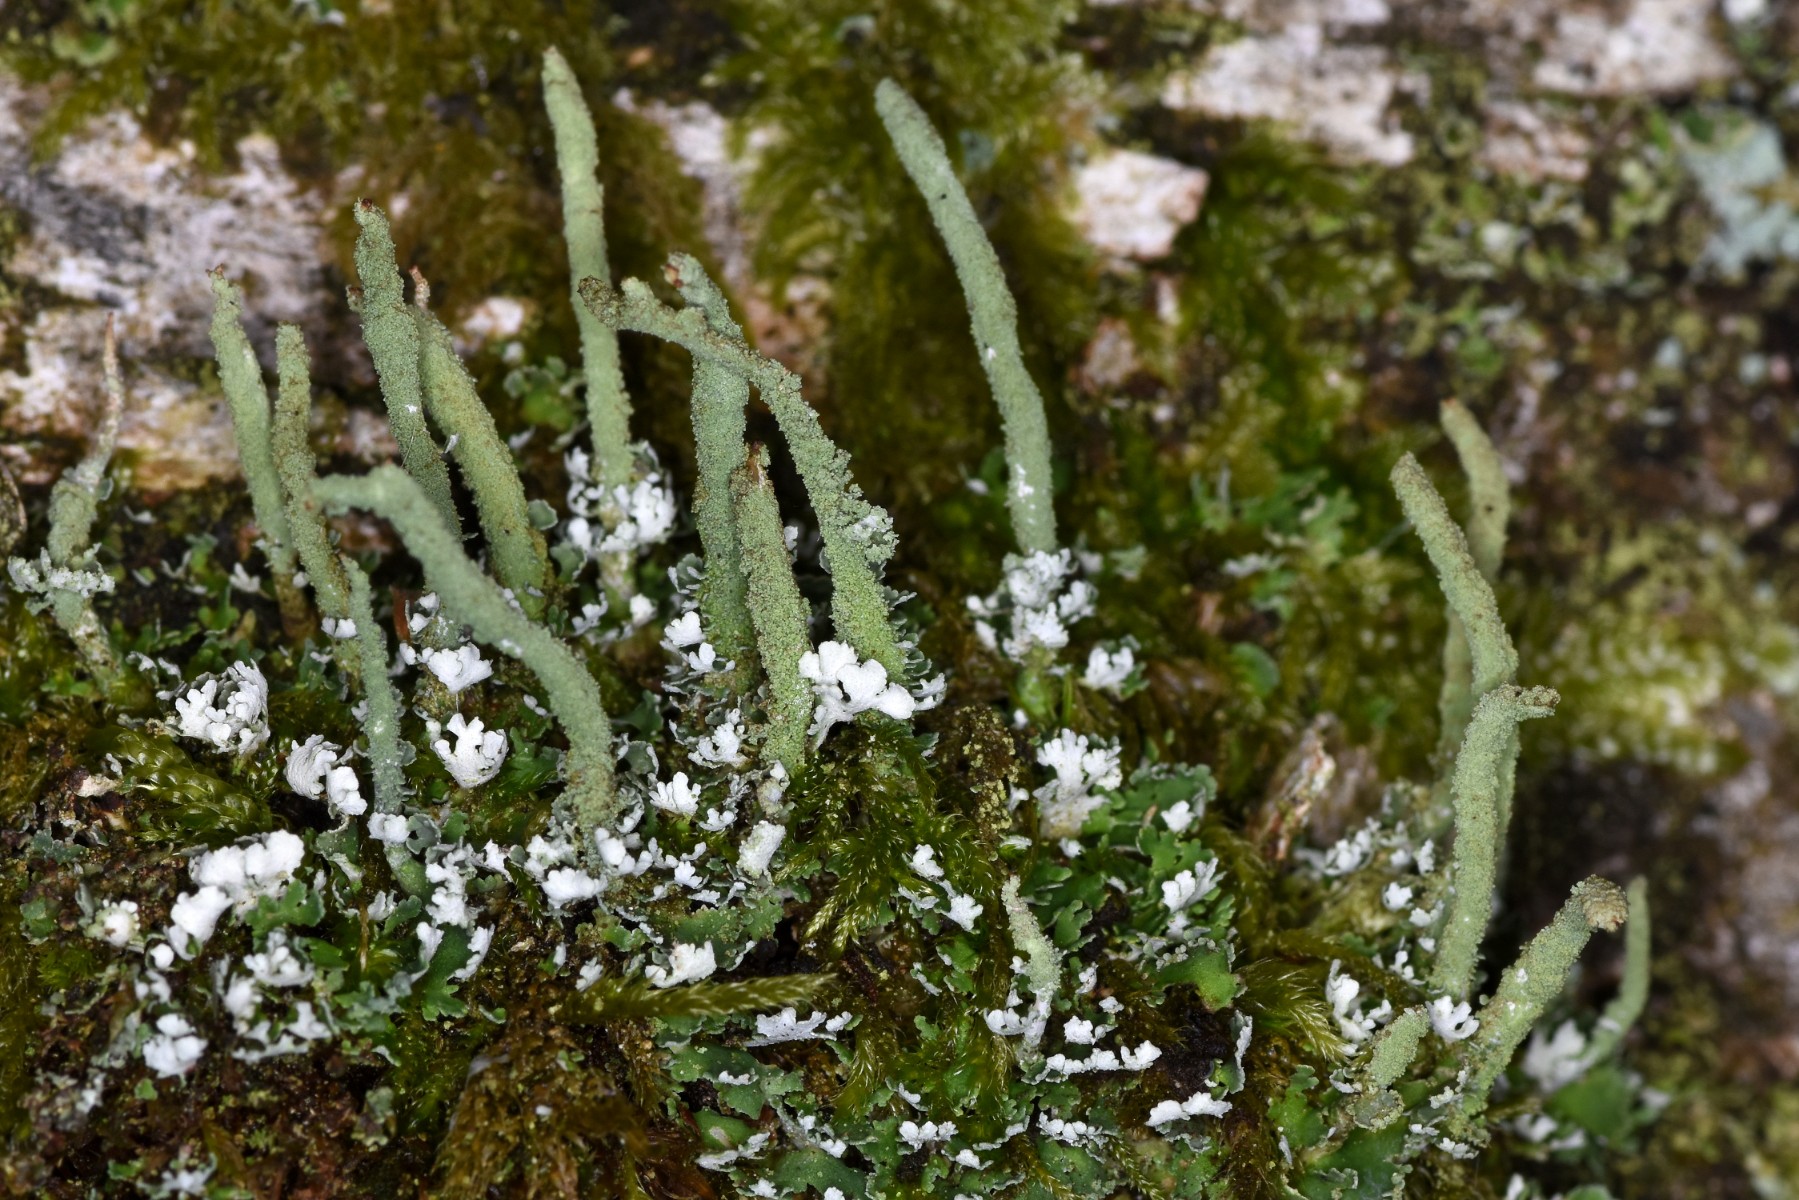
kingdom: Fungi
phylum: Ascomycota
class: Lecanoromycetes
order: Lecanorales
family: Cladoniaceae
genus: Cladonia
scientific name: Cladonia coniocraea
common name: træfods-bægerlav
